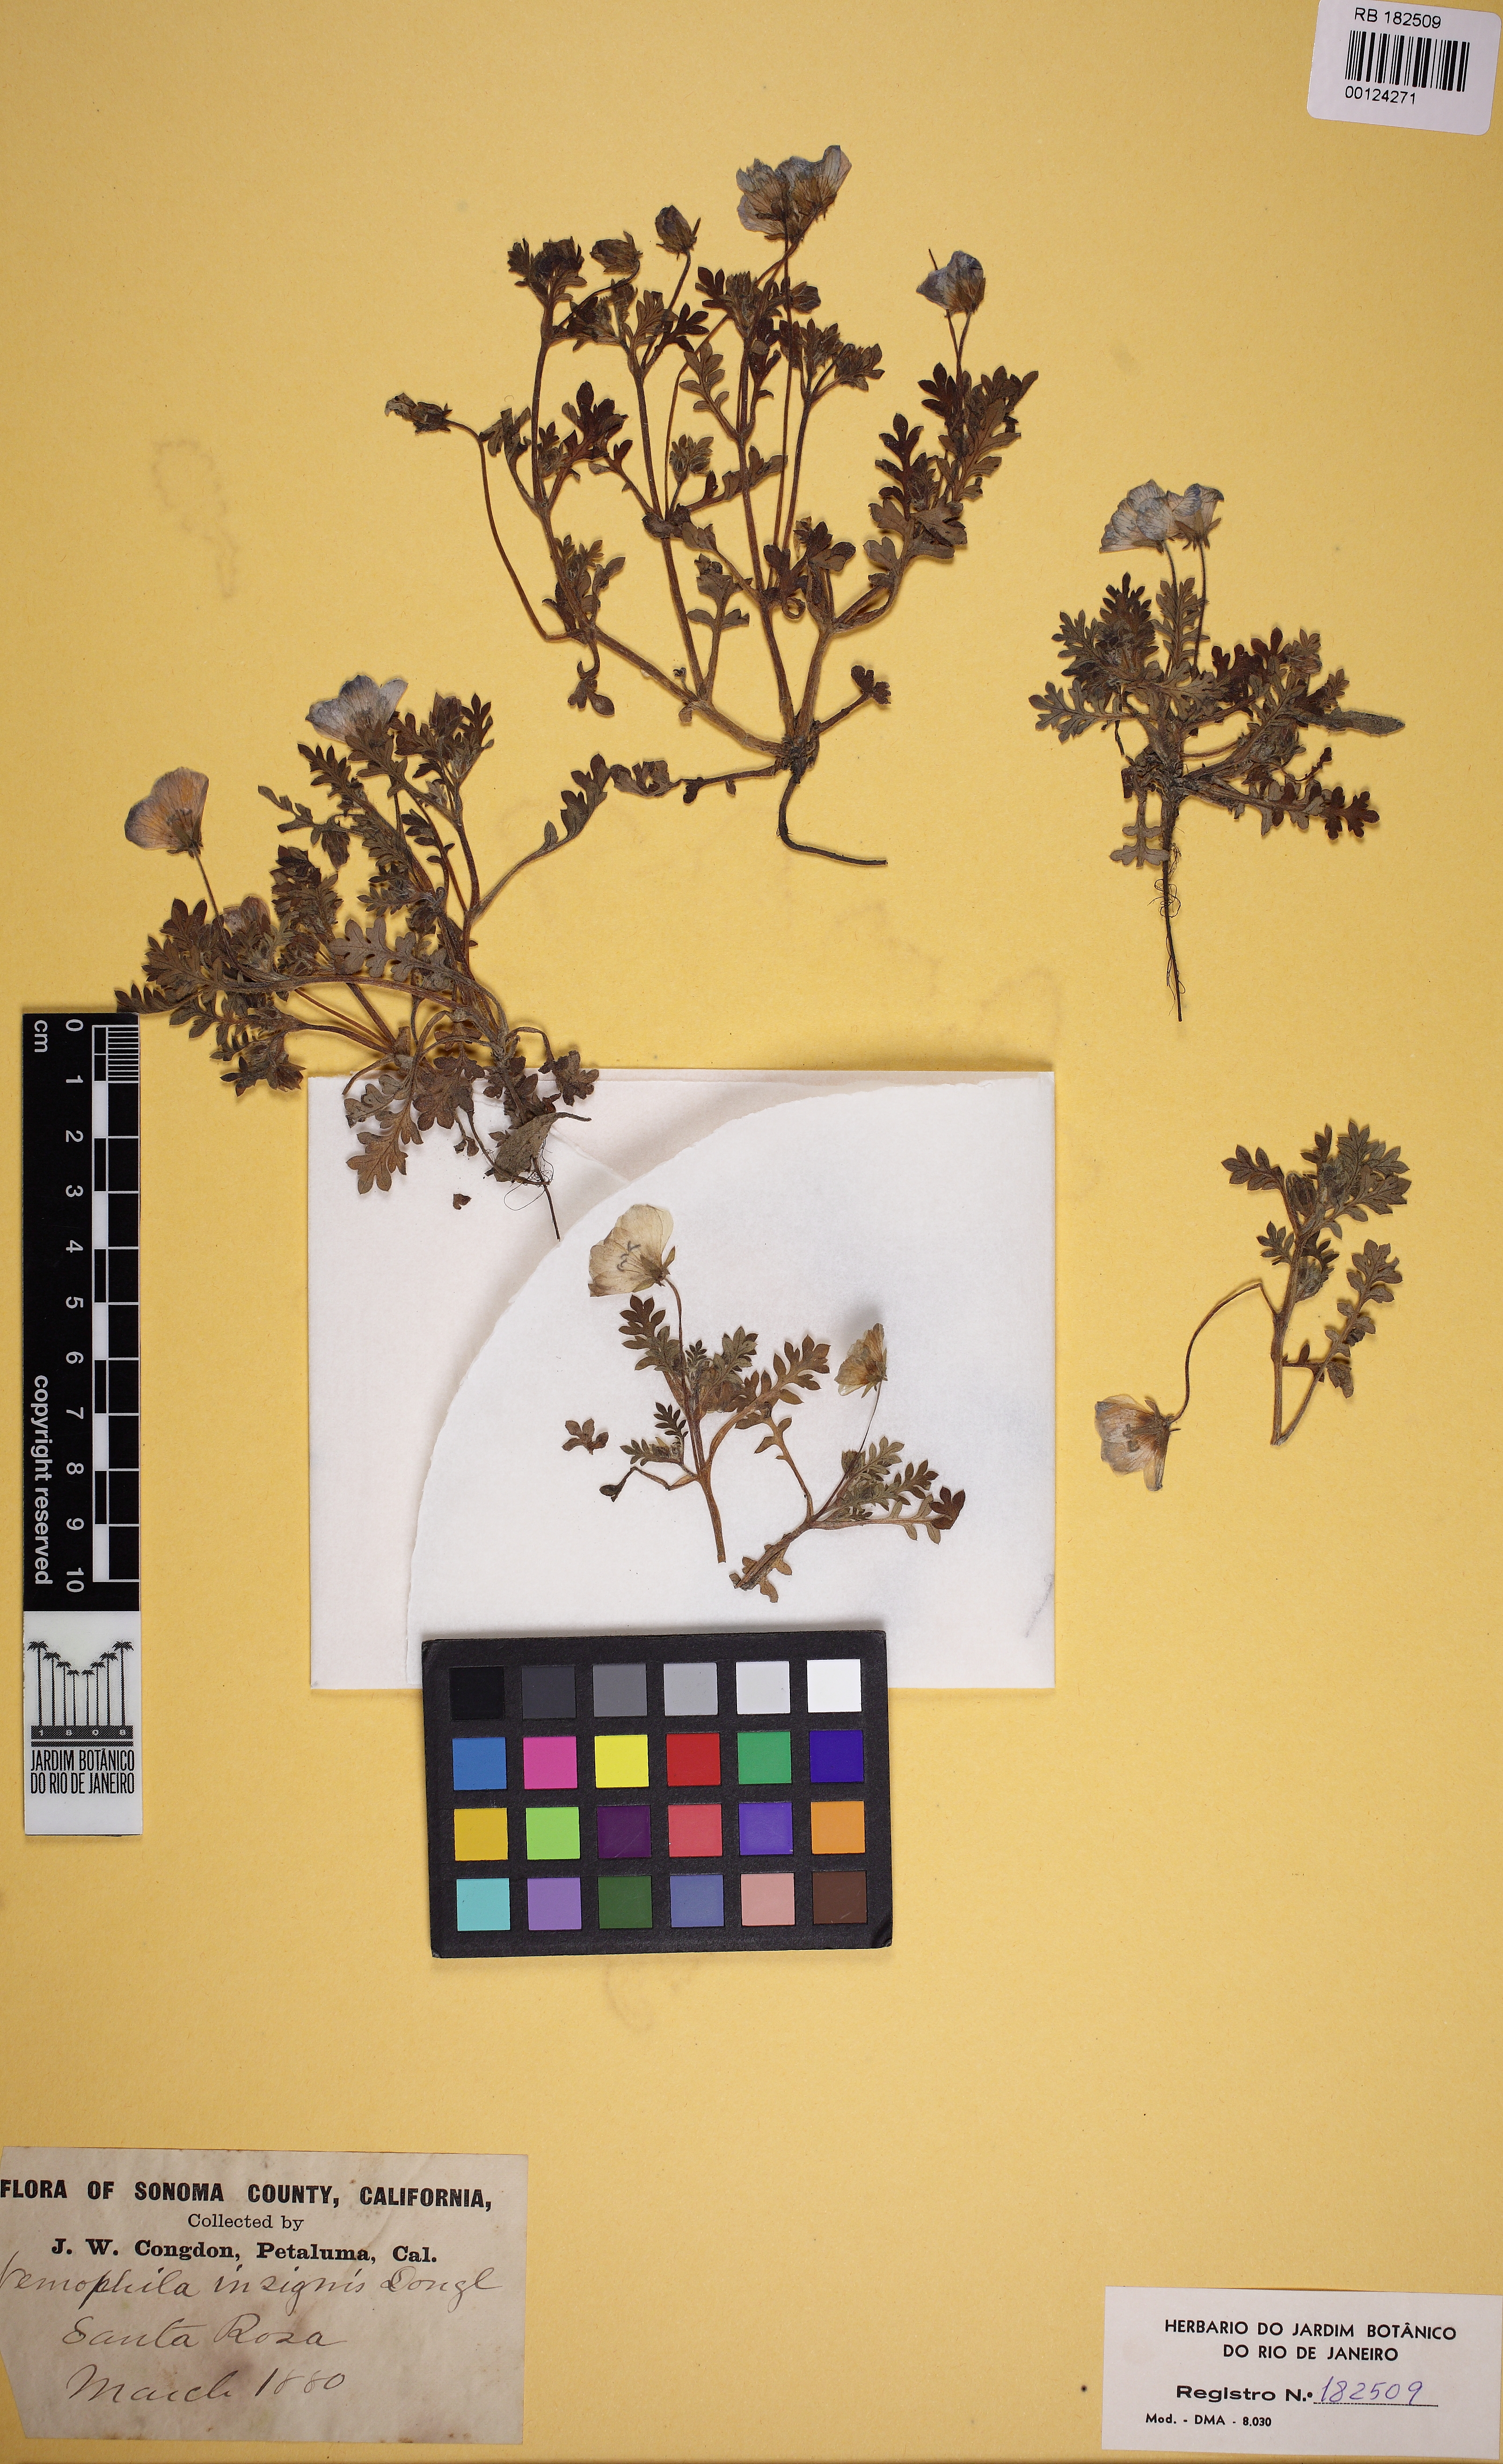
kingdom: Plantae
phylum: Tracheophyta
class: Magnoliopsida
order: Boraginales
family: Hydrophyllaceae
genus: Nemophila
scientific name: Nemophila menziesii
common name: Baby's-blue-eyes
